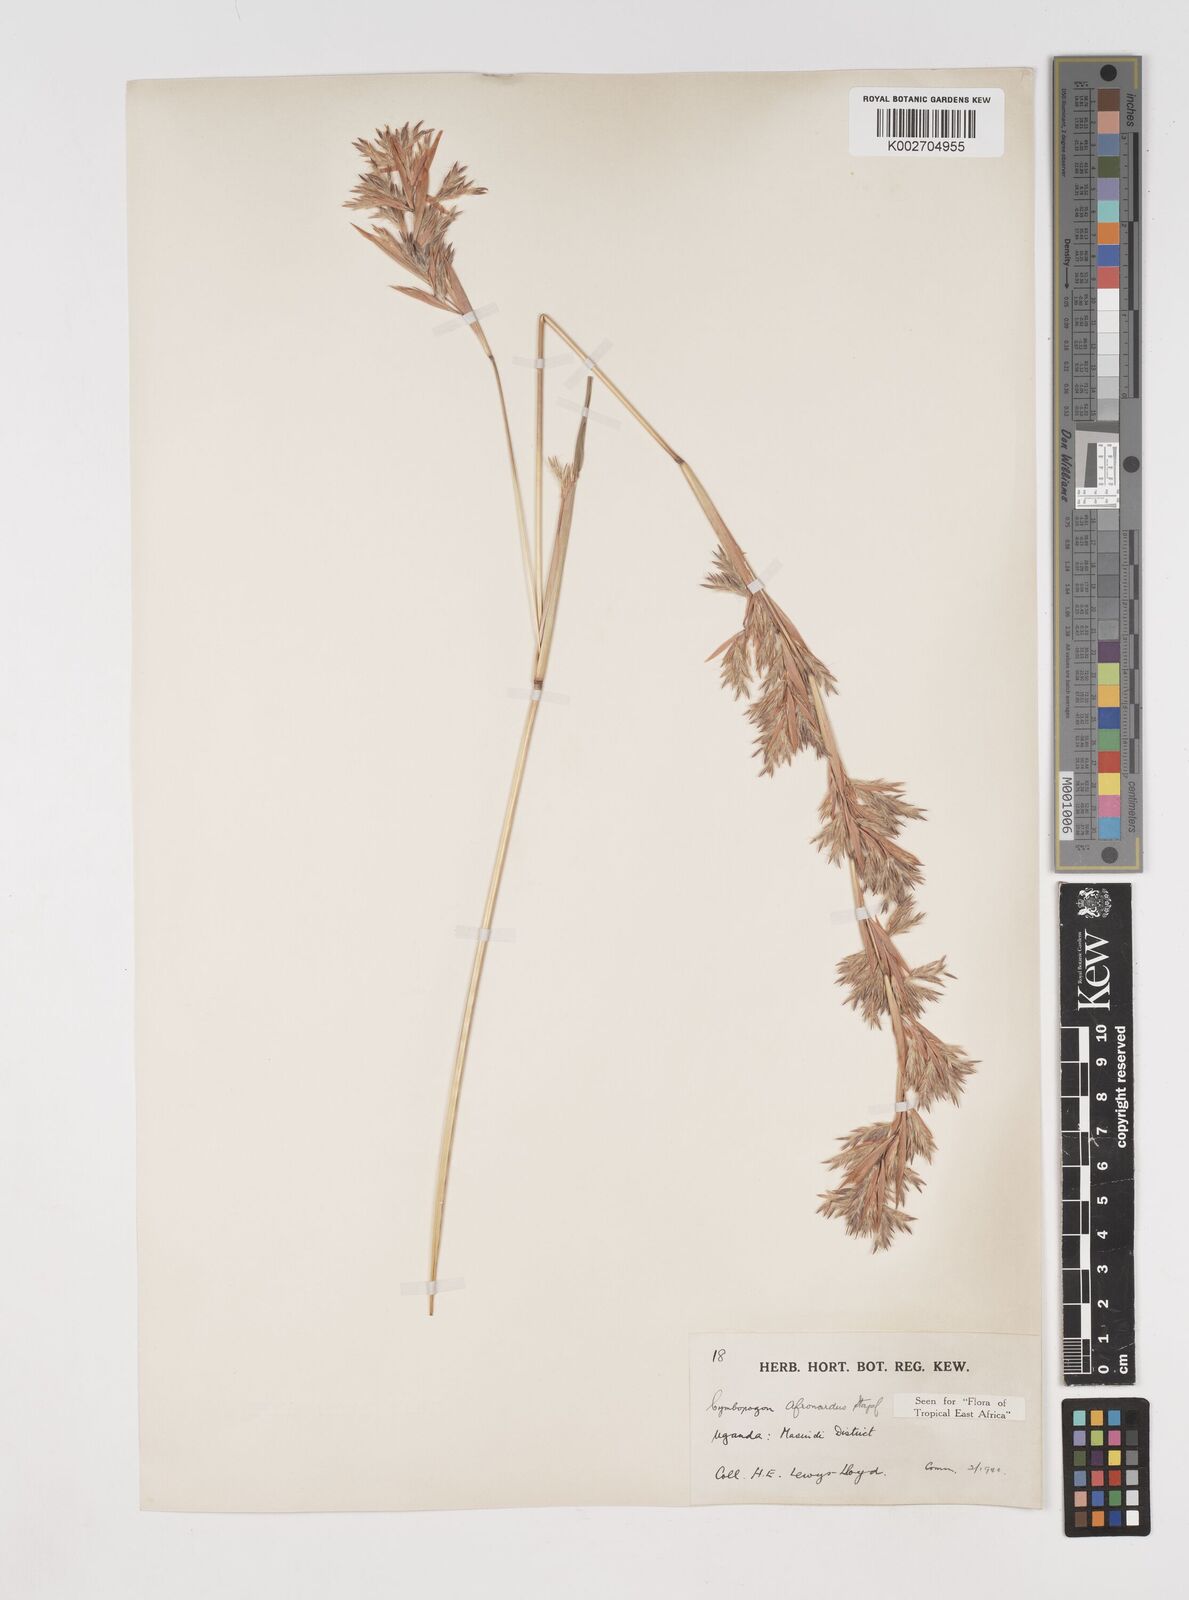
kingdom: Plantae
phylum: Tracheophyta
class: Liliopsida
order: Poales
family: Poaceae
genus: Cymbopogon
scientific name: Cymbopogon nardus
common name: Giant turpentine grass
